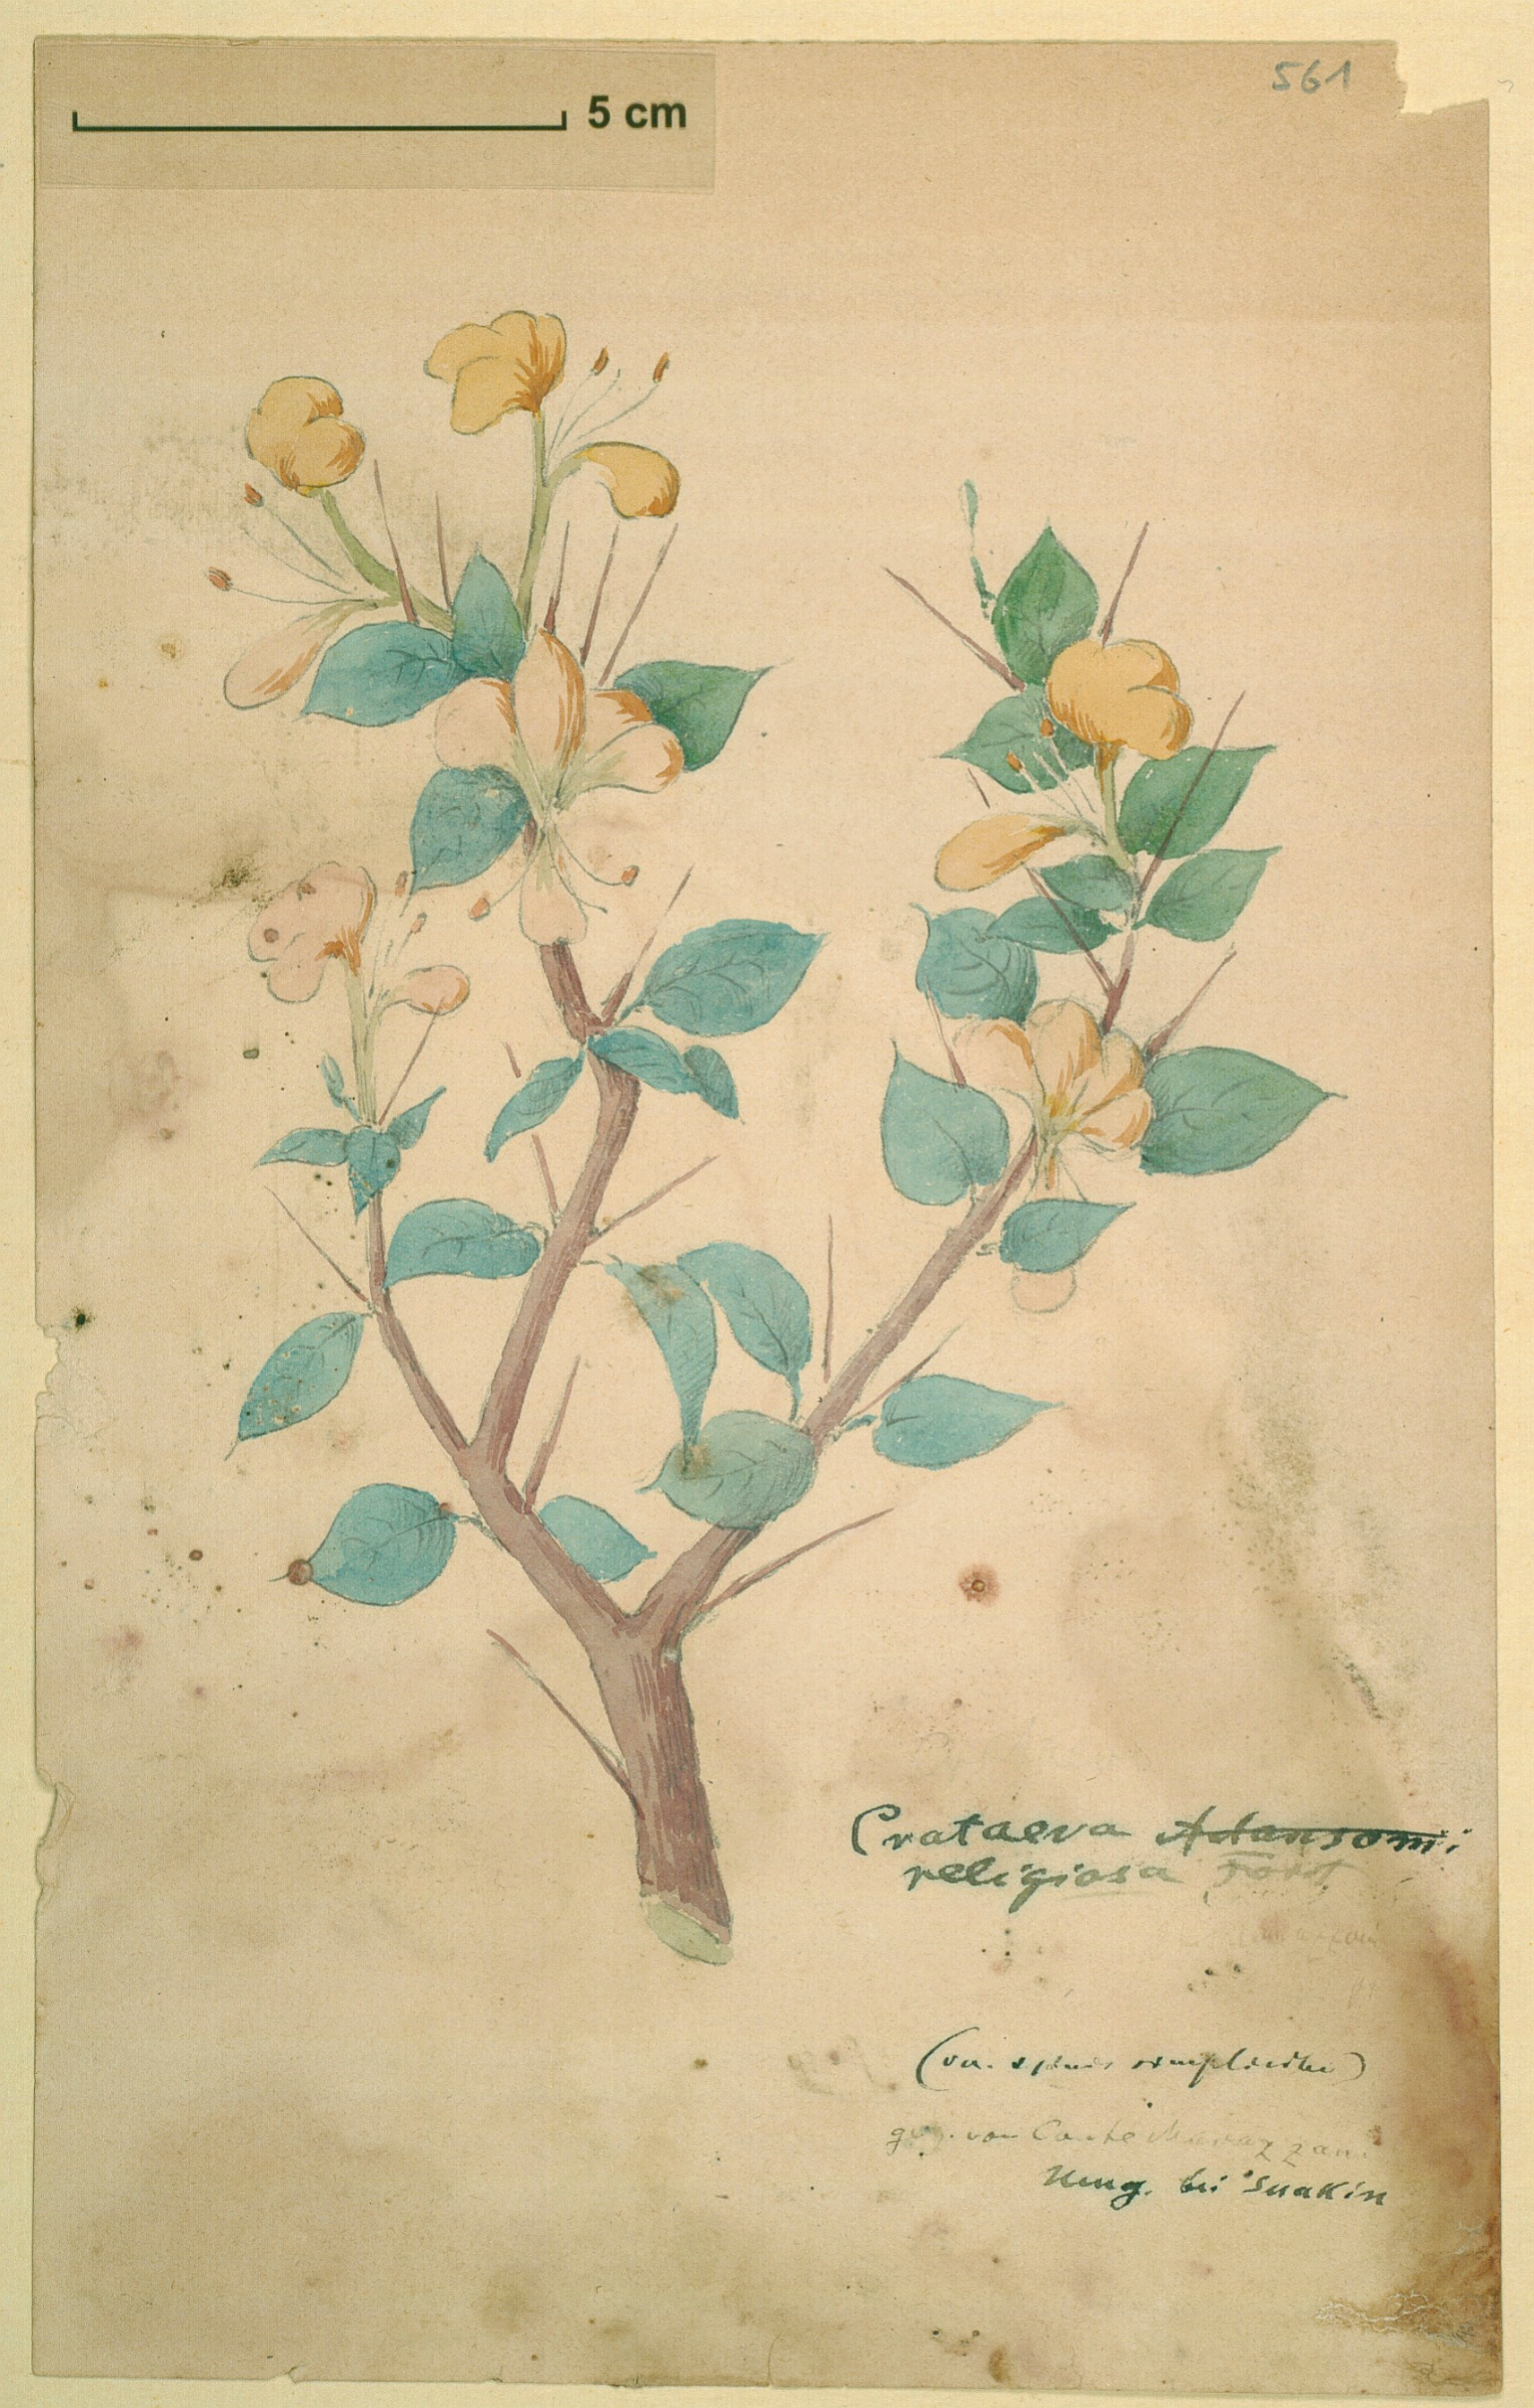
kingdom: Plantae
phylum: Tracheophyta
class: Magnoliopsida
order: Brassicales
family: Capparaceae
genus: Crateva
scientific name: Crateva religiosa
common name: March dalur
